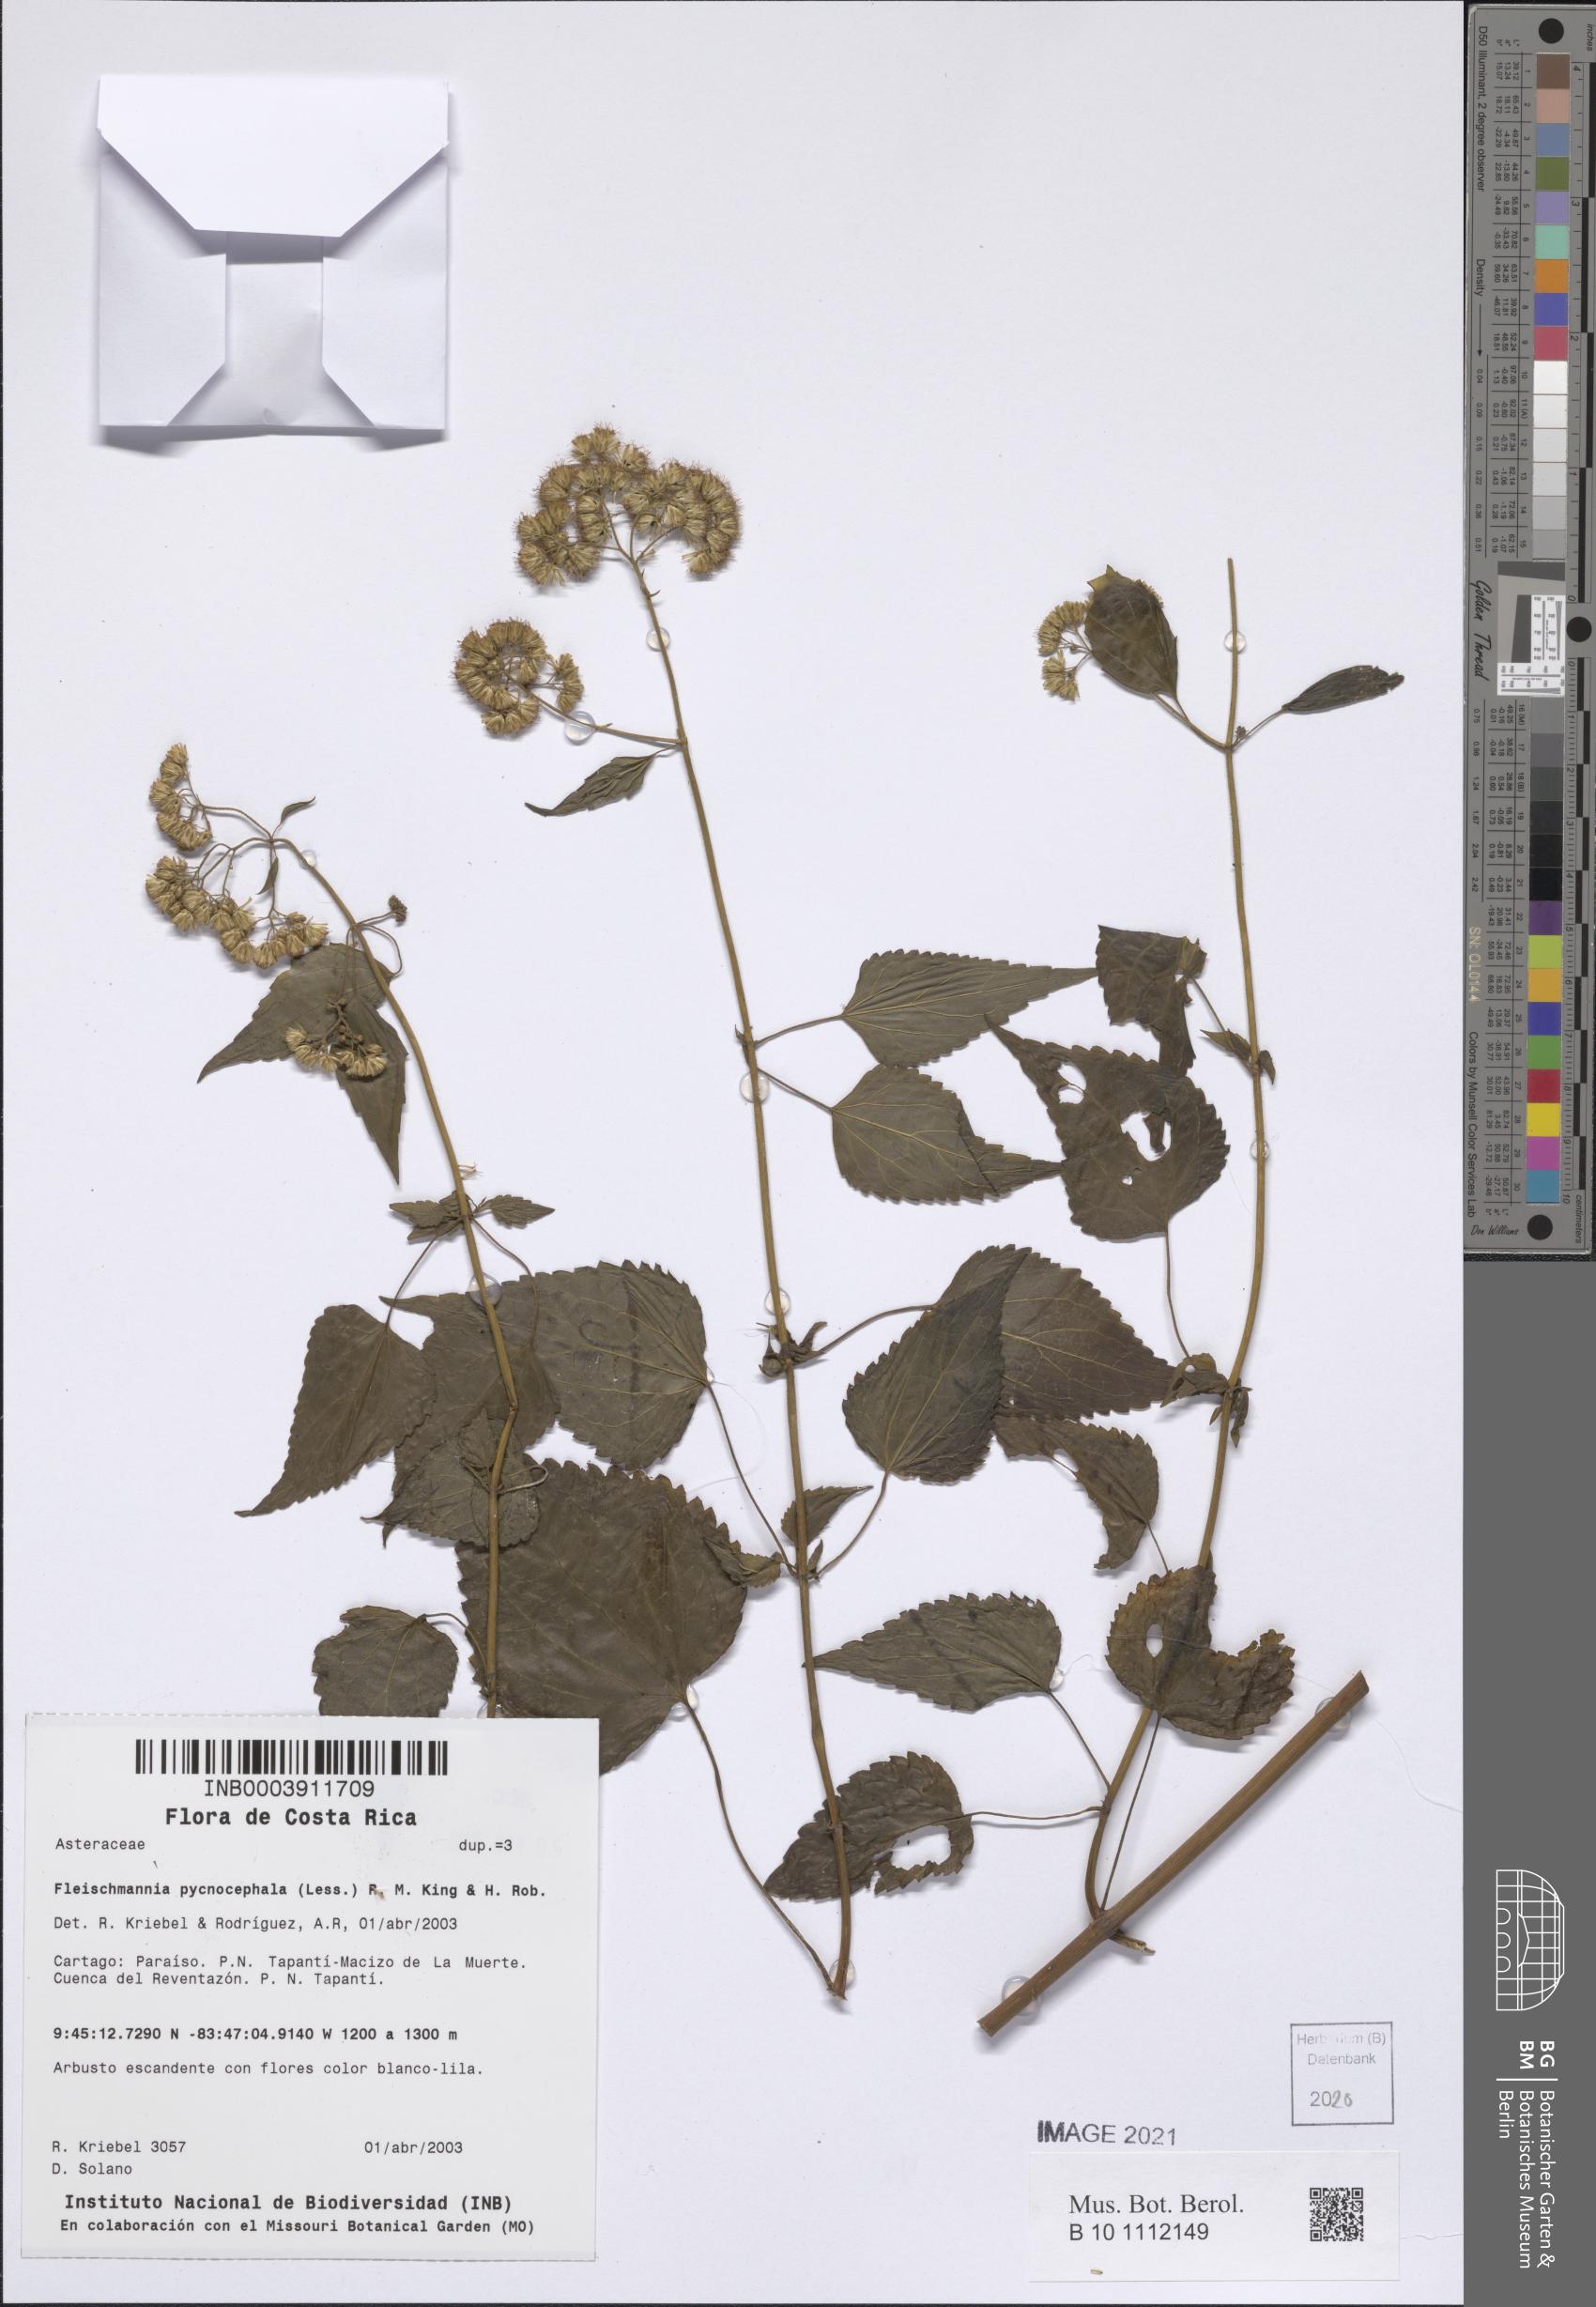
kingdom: Plantae
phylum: Tracheophyta
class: Magnoliopsida
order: Asterales
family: Asteraceae
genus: Fleischmannia
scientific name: Fleischmannia pycnocephala
